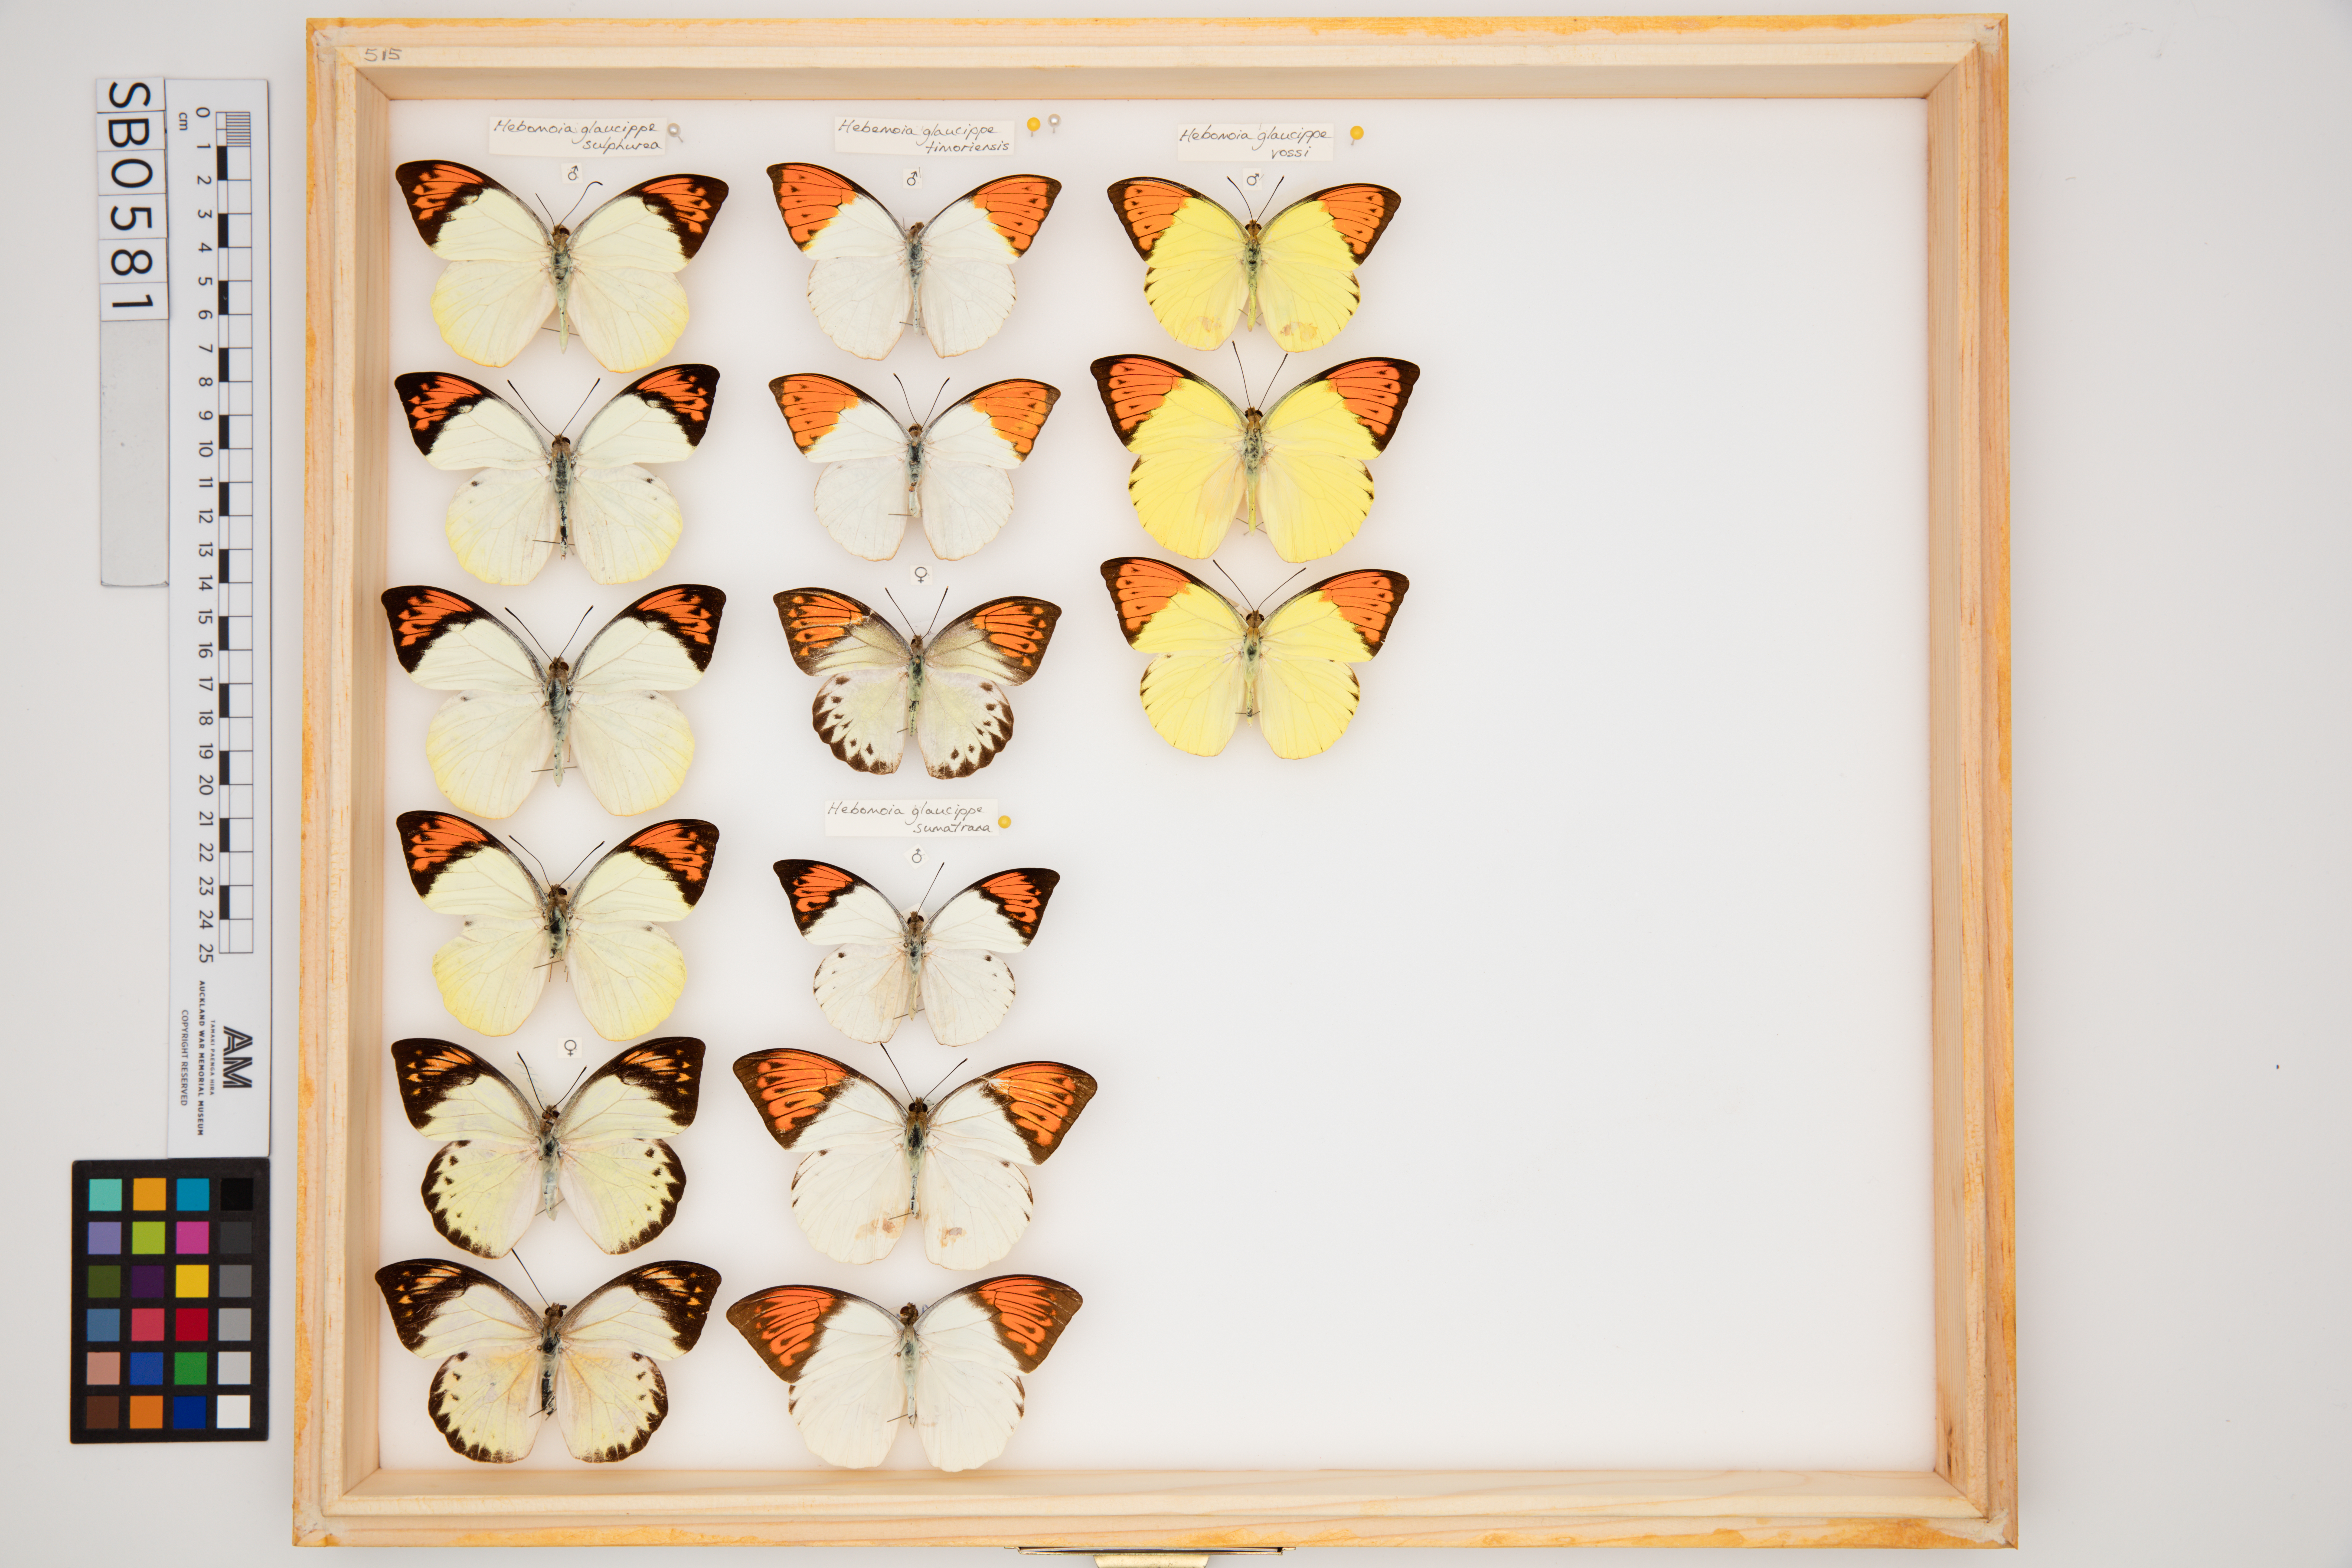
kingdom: Animalia
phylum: Arthropoda
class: Insecta
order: Lepidoptera
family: Pieridae
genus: Hebomoia
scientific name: Hebomoia glaucippe
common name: Great orange tip
